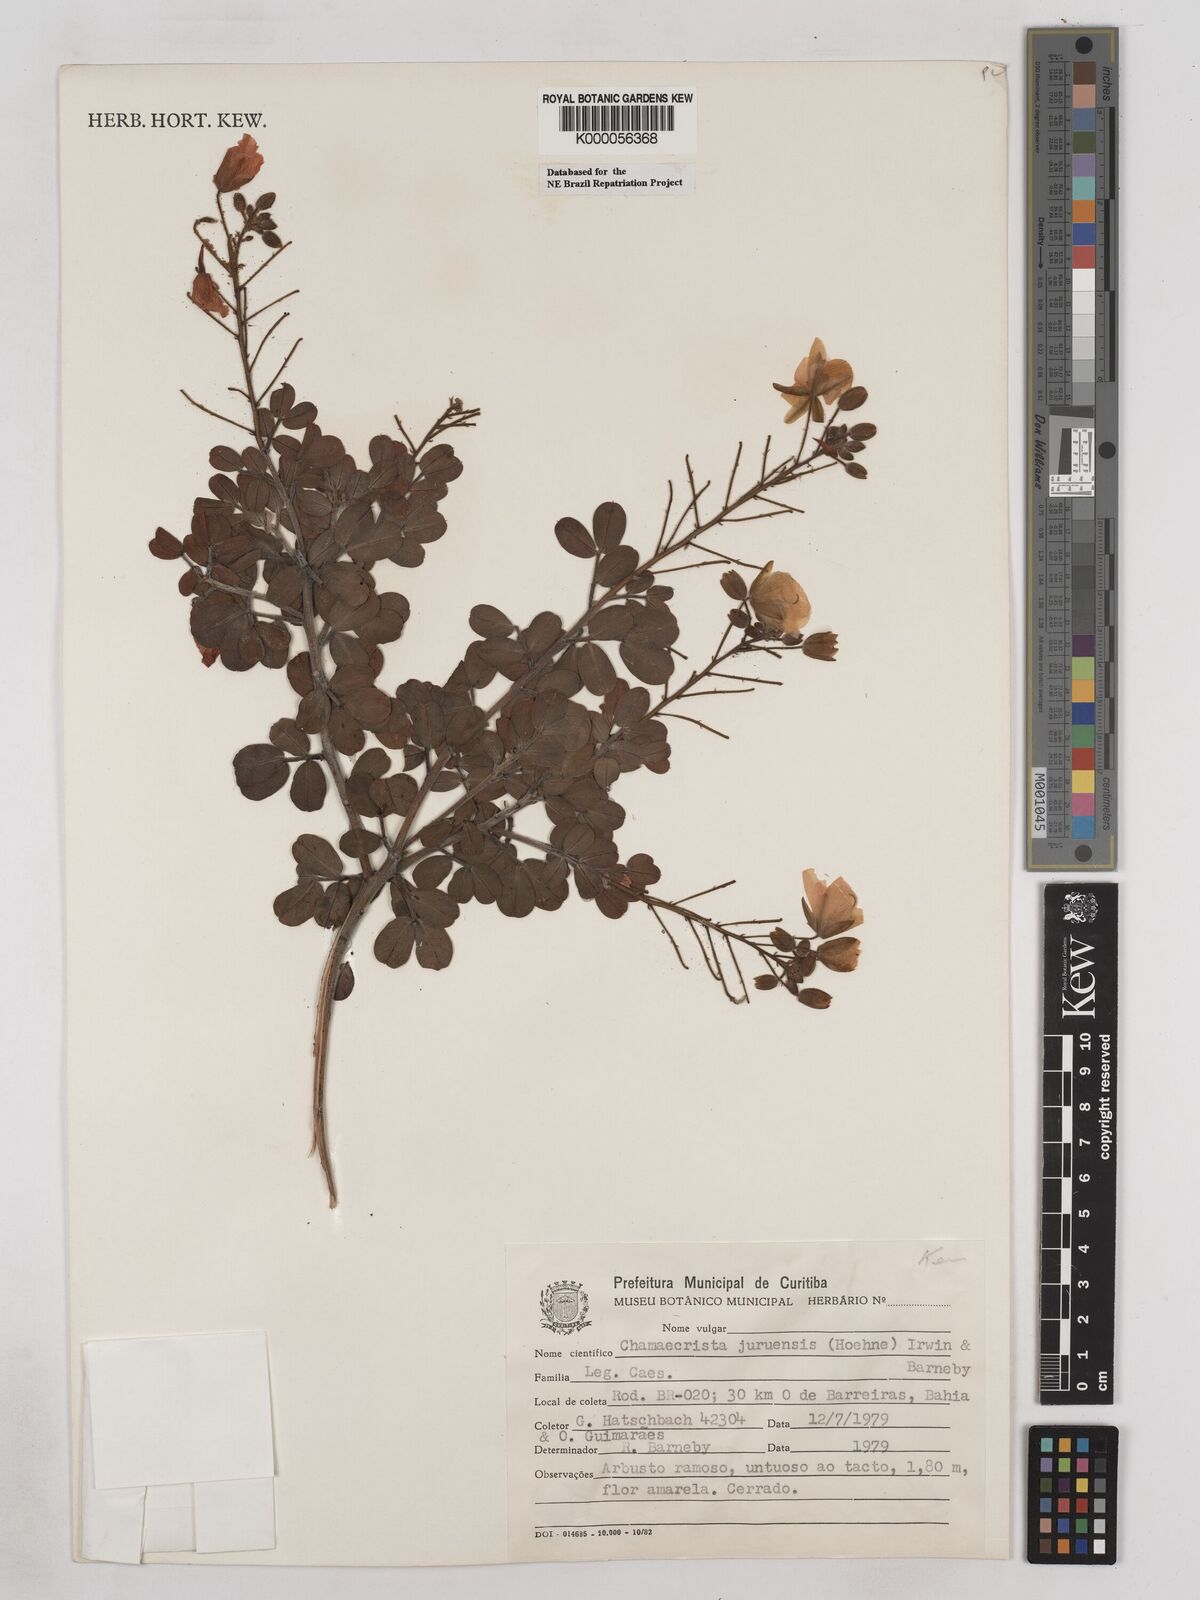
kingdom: Plantae
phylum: Tracheophyta
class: Magnoliopsida
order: Fabales
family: Fabaceae
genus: Chamaecrista
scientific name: Chamaecrista juruenensis
